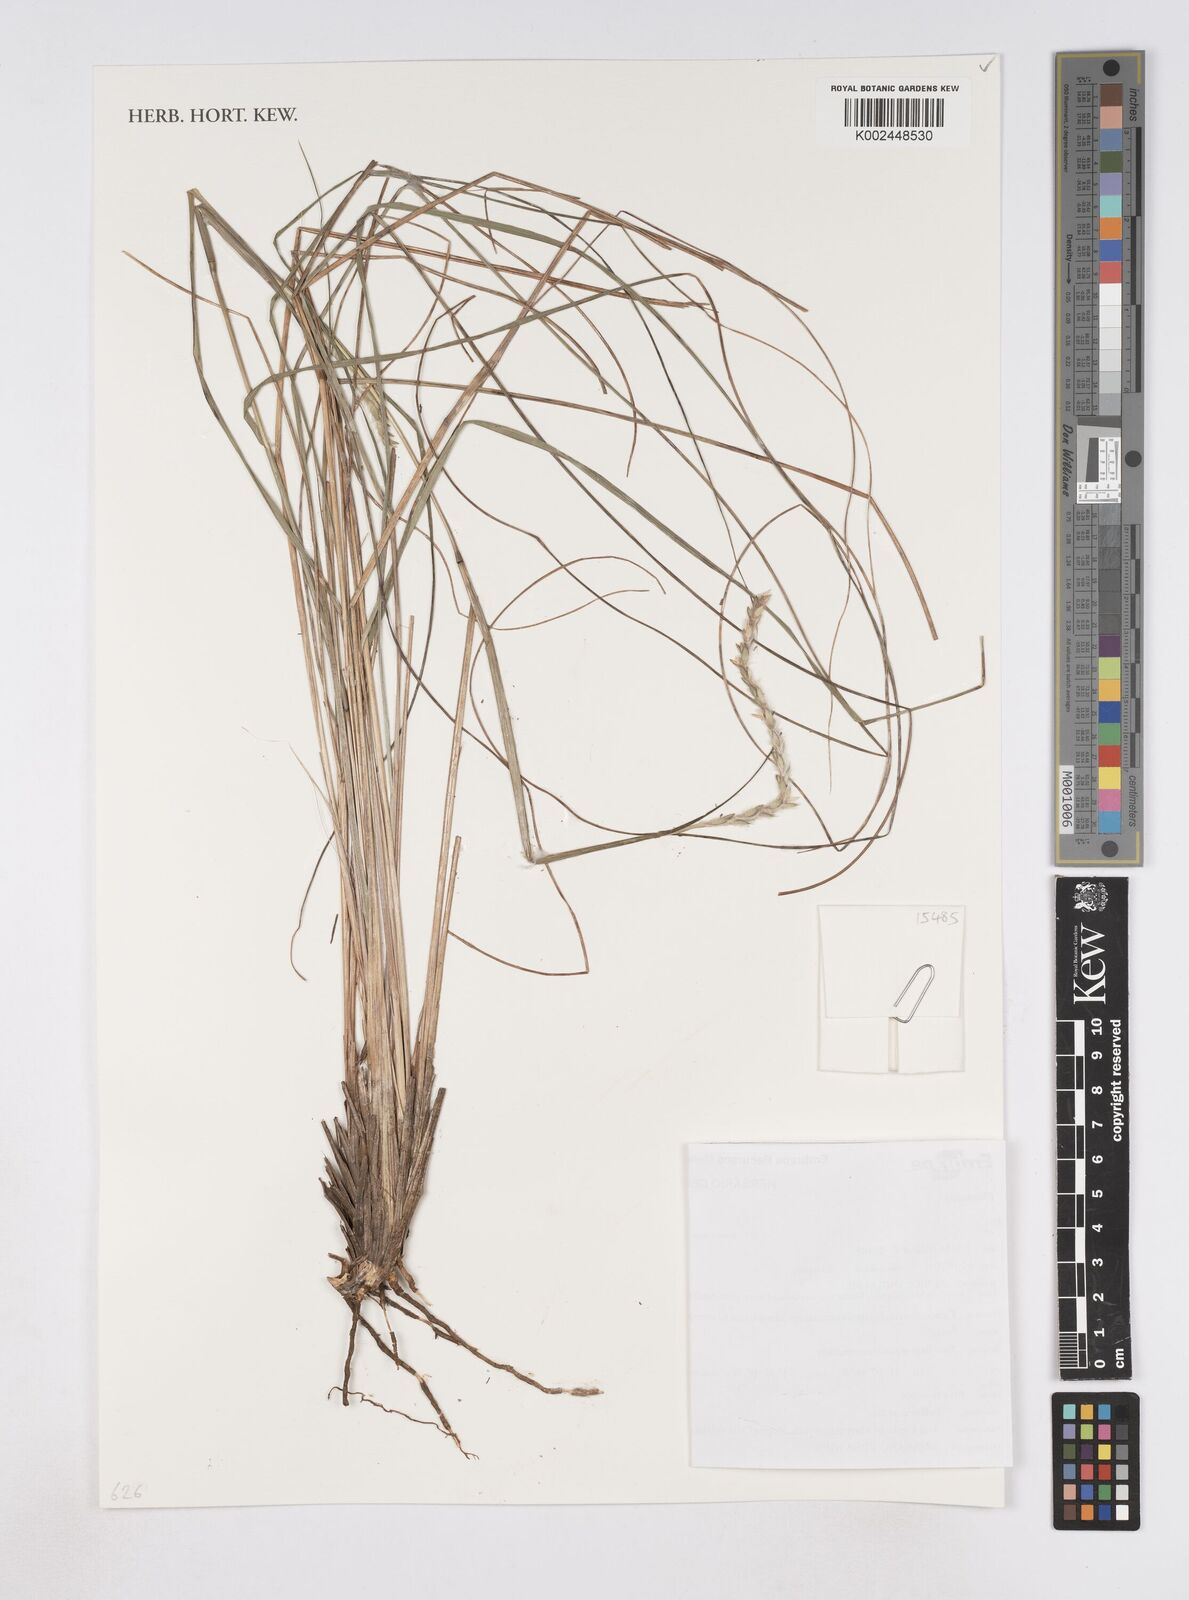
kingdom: Plantae
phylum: Tracheophyta
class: Liliopsida
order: Poales
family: Poaceae
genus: Elionurus
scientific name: Elionurus
